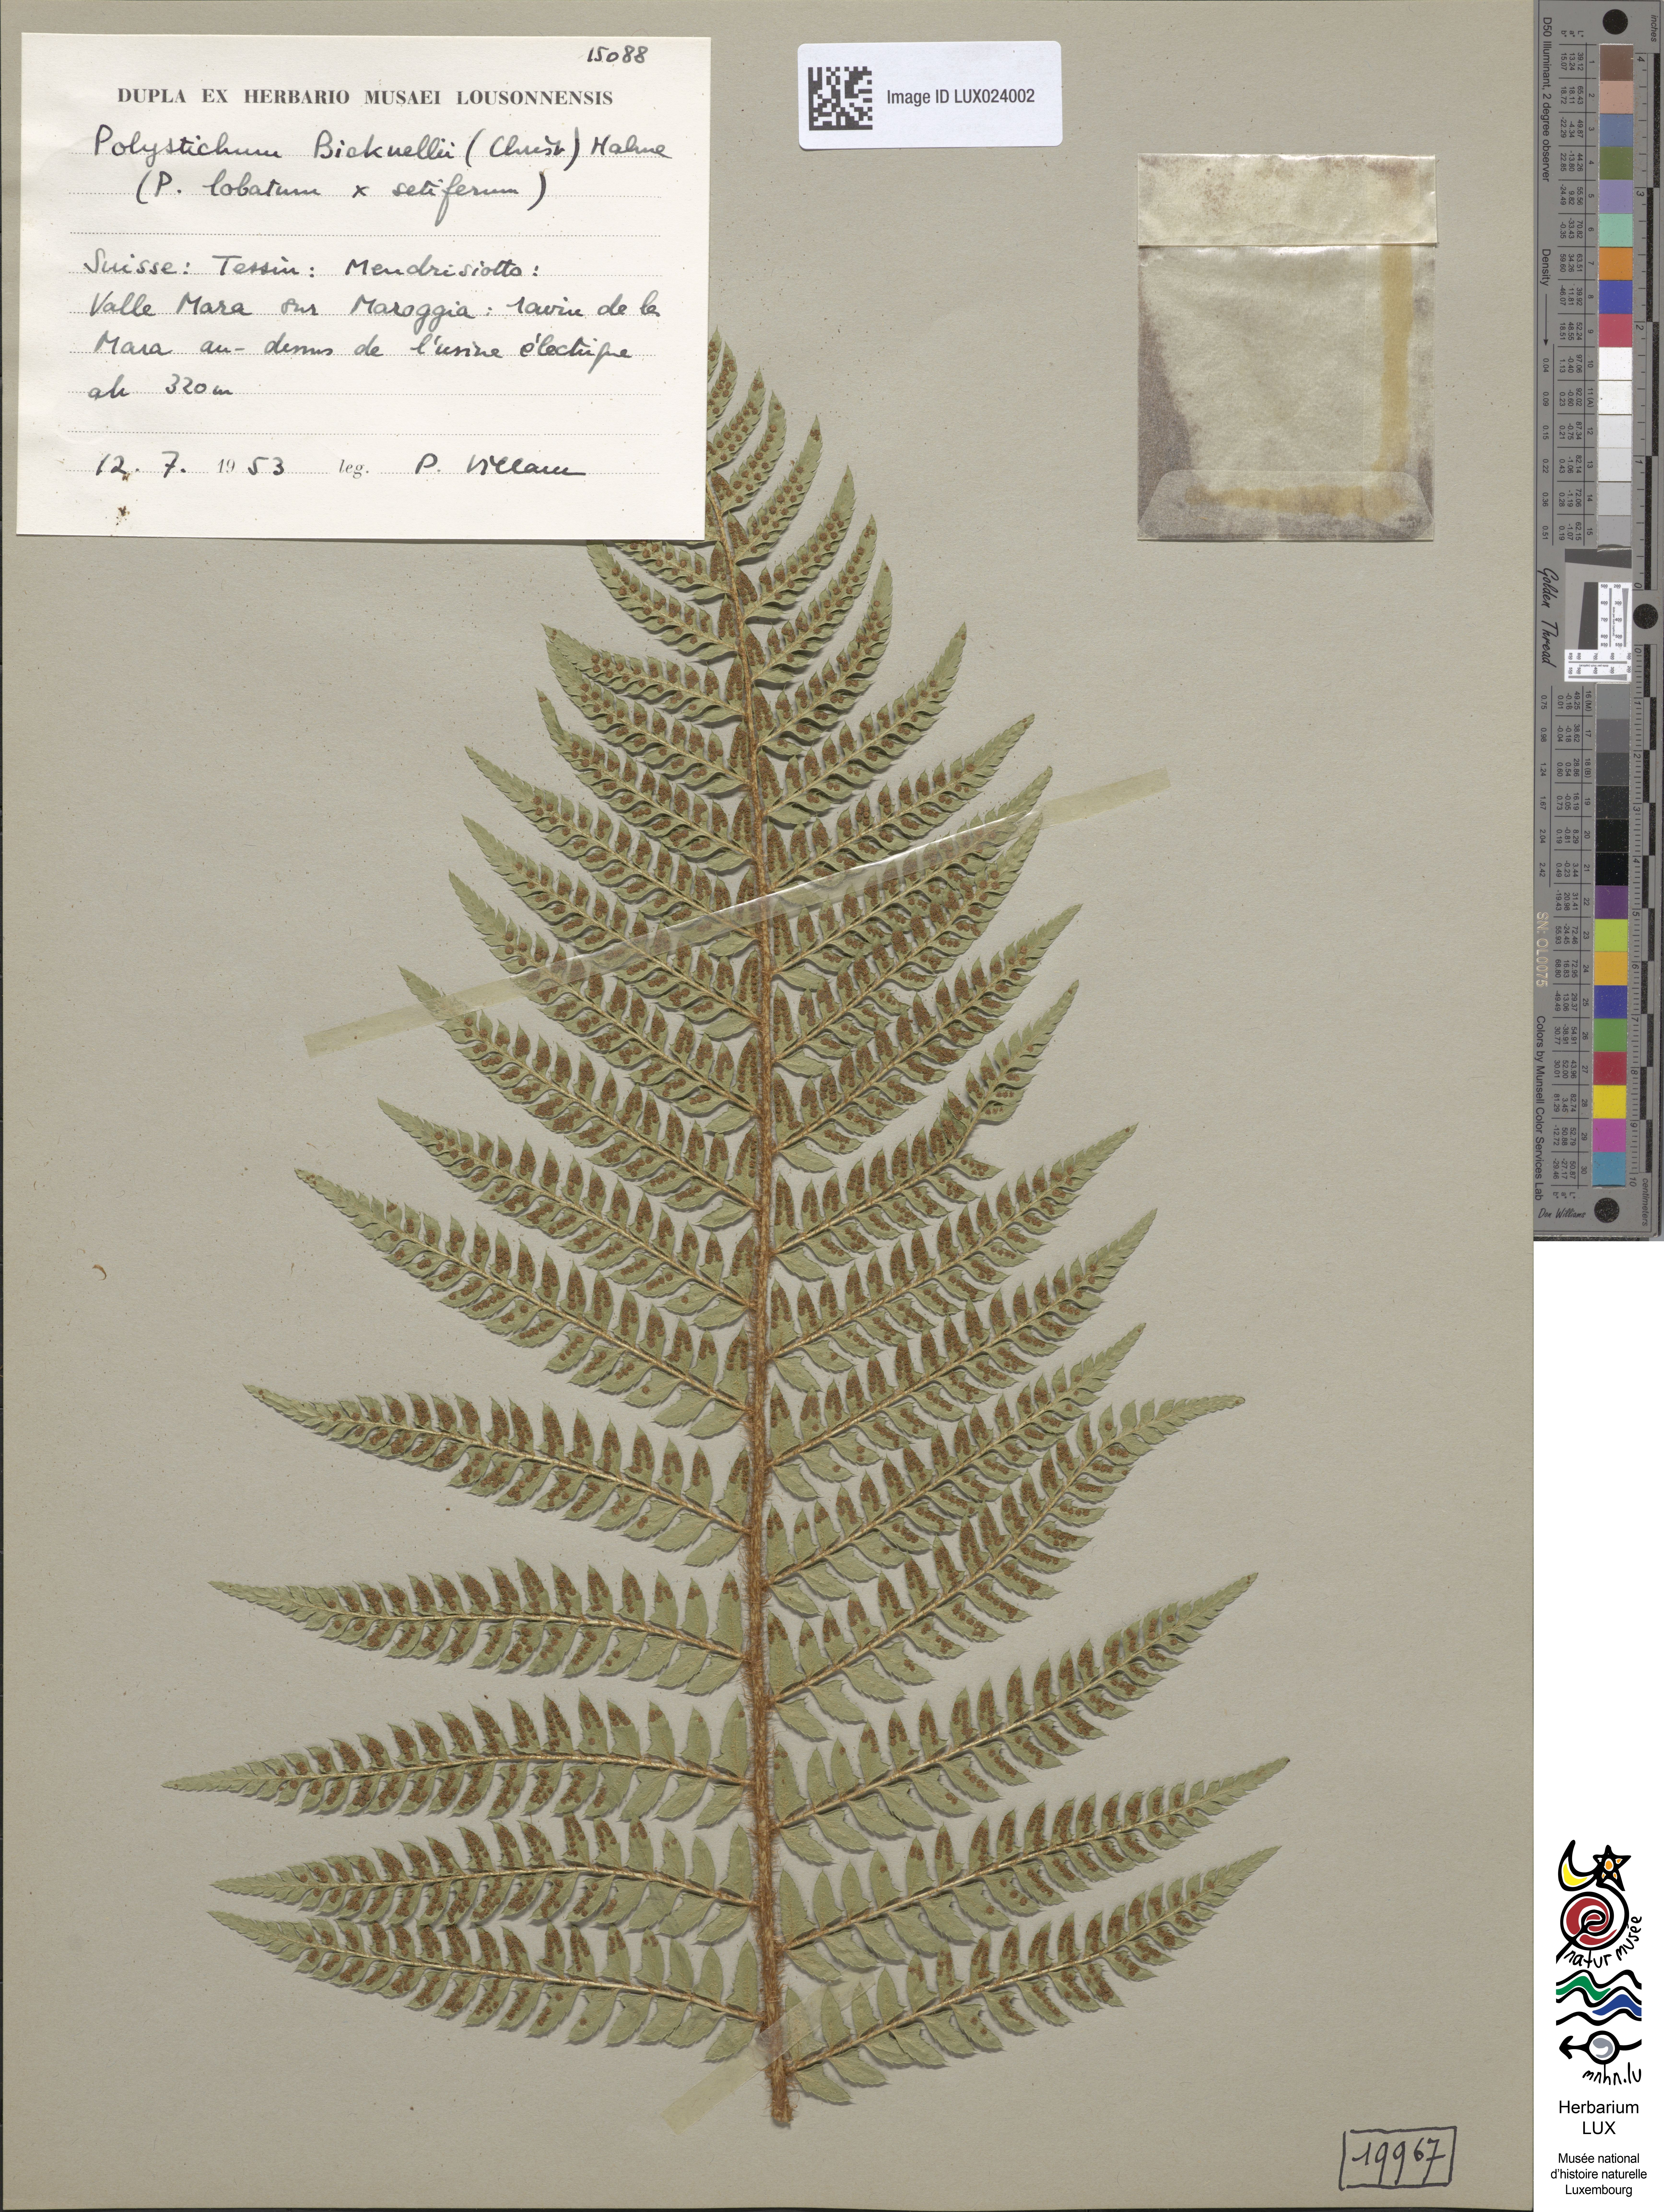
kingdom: Plantae
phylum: Tracheophyta
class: Polypodiopsida
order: Polypodiales
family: Dryopteridaceae
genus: Polystichum
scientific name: Polystichum
